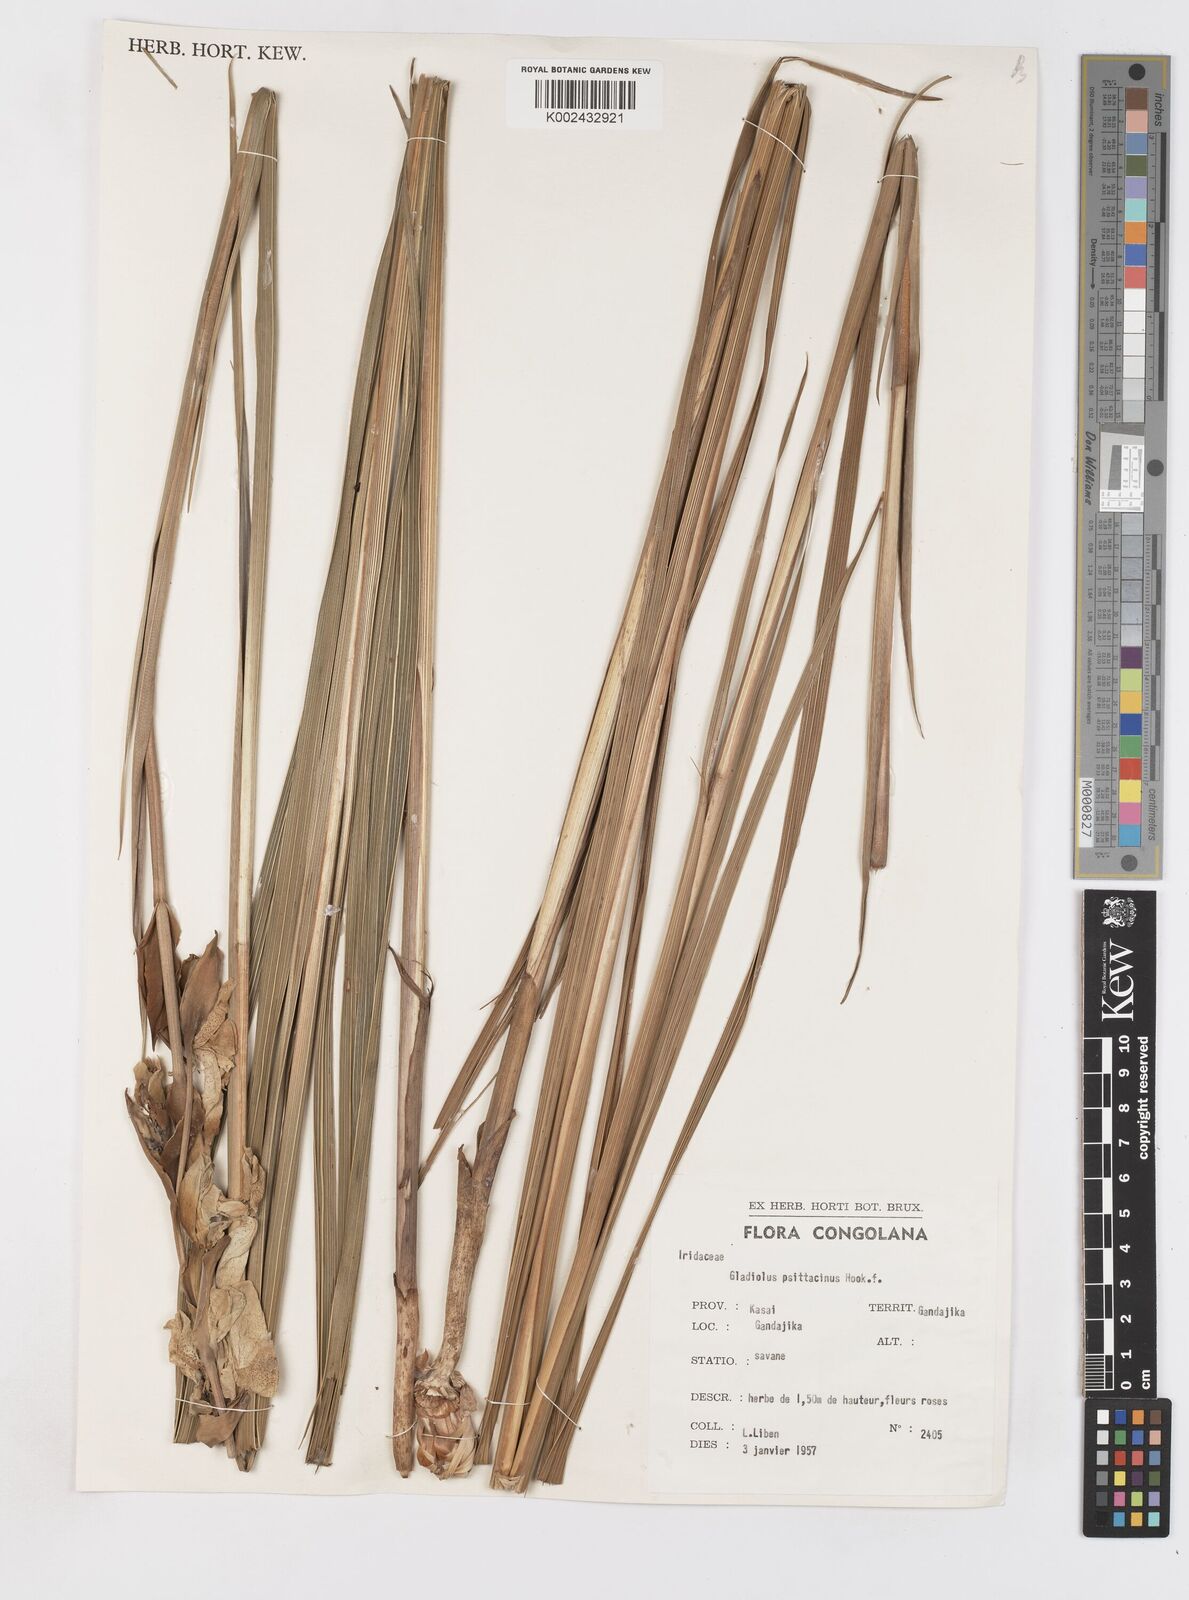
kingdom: Plantae
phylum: Tracheophyta
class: Liliopsida
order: Asparagales
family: Iridaceae
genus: Gladiolus
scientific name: Gladiolus dalenii
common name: Cornflag
